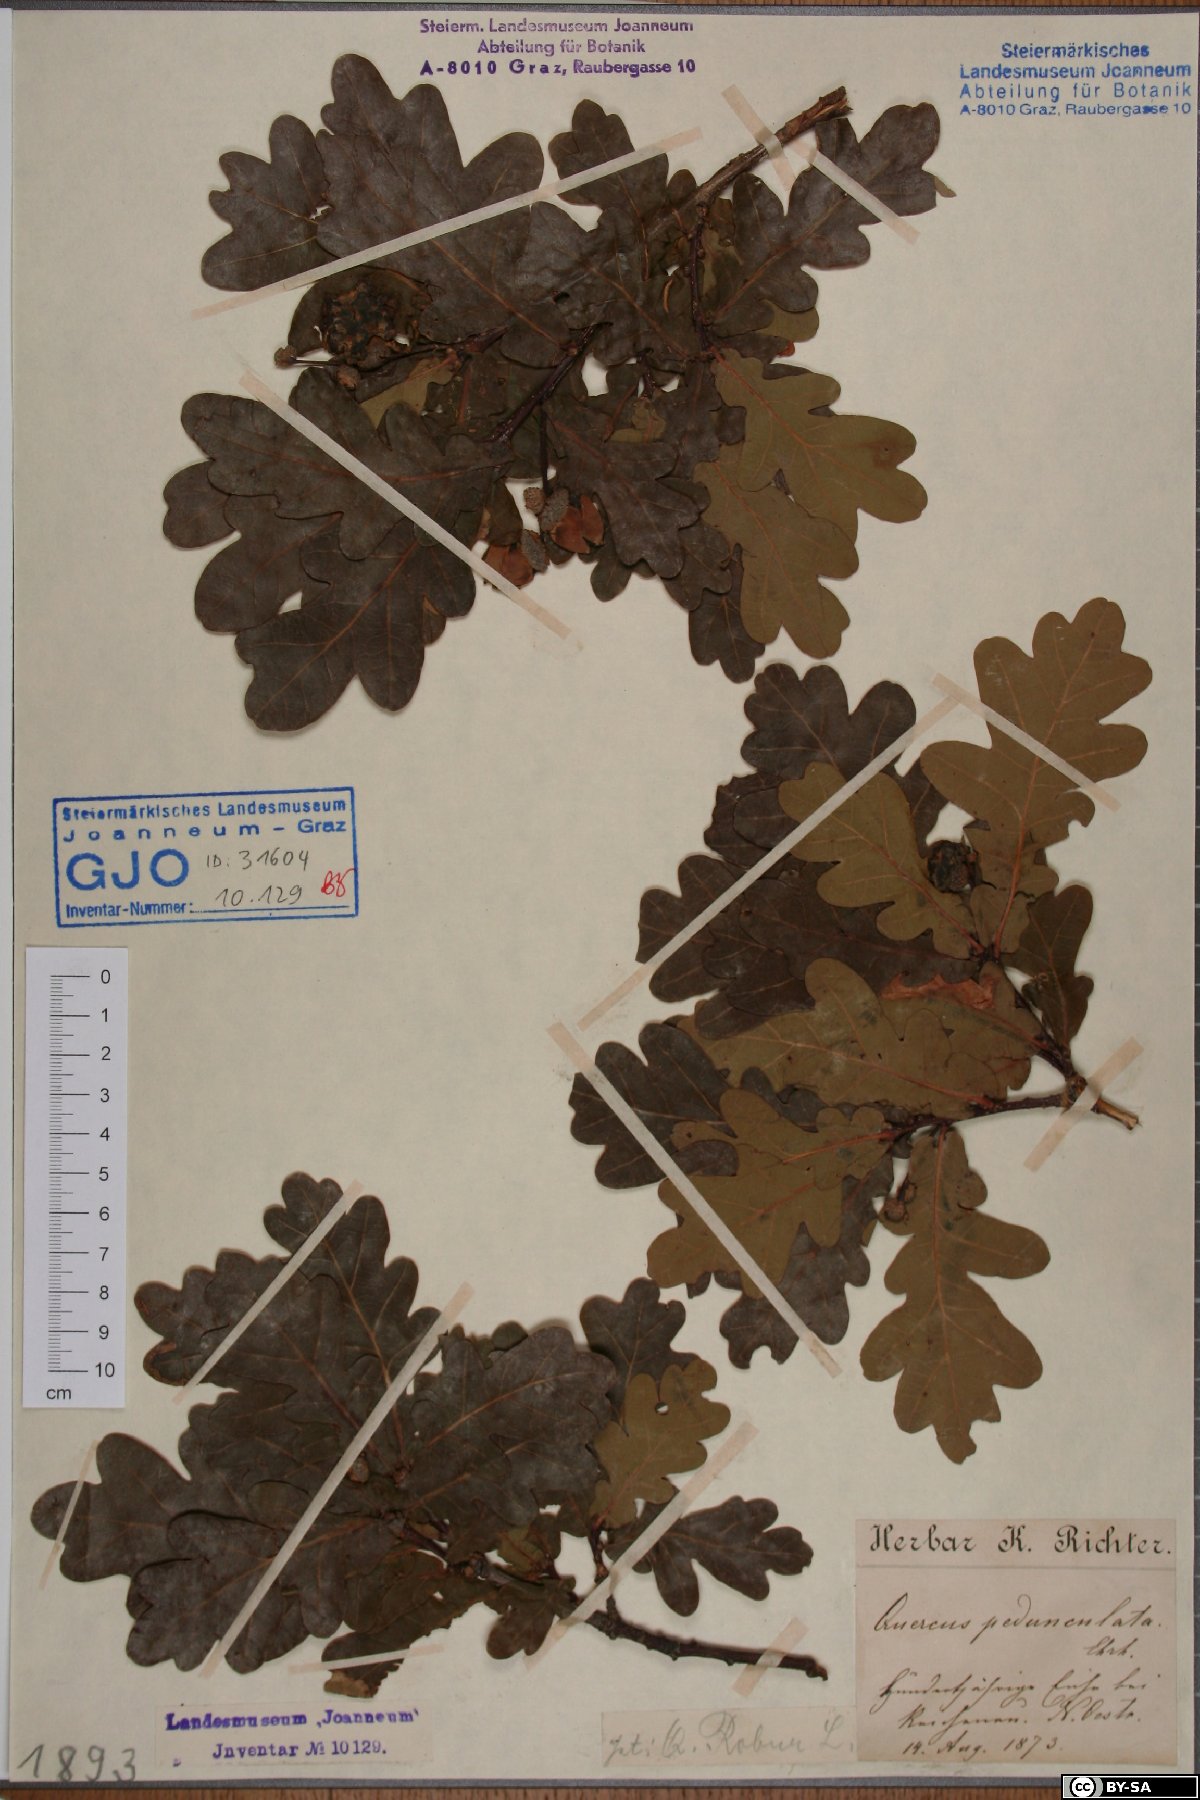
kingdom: Plantae
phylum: Tracheophyta
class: Magnoliopsida
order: Fagales
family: Fagaceae
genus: Quercus
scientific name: Quercus robur
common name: Pedunculate oak
